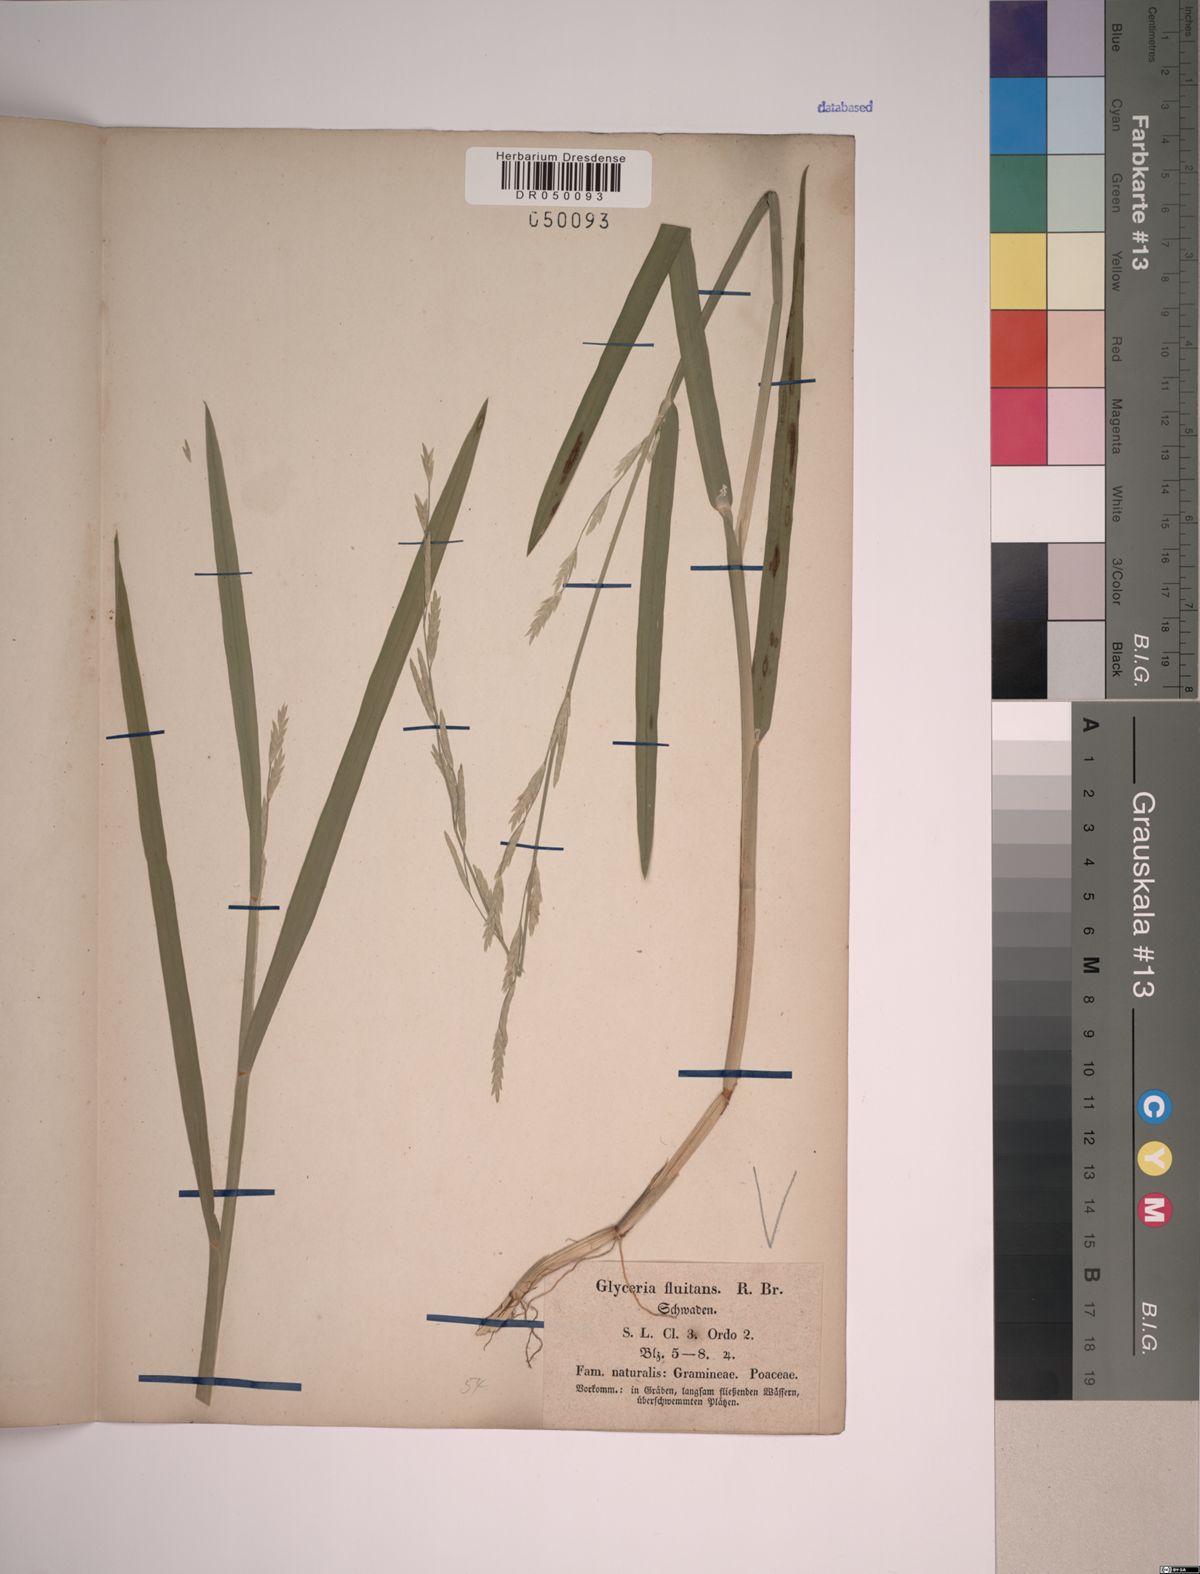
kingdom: Plantae
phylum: Tracheophyta
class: Liliopsida
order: Poales
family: Poaceae
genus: Glyceria
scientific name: Glyceria fluitans
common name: Floating sweet-grass
